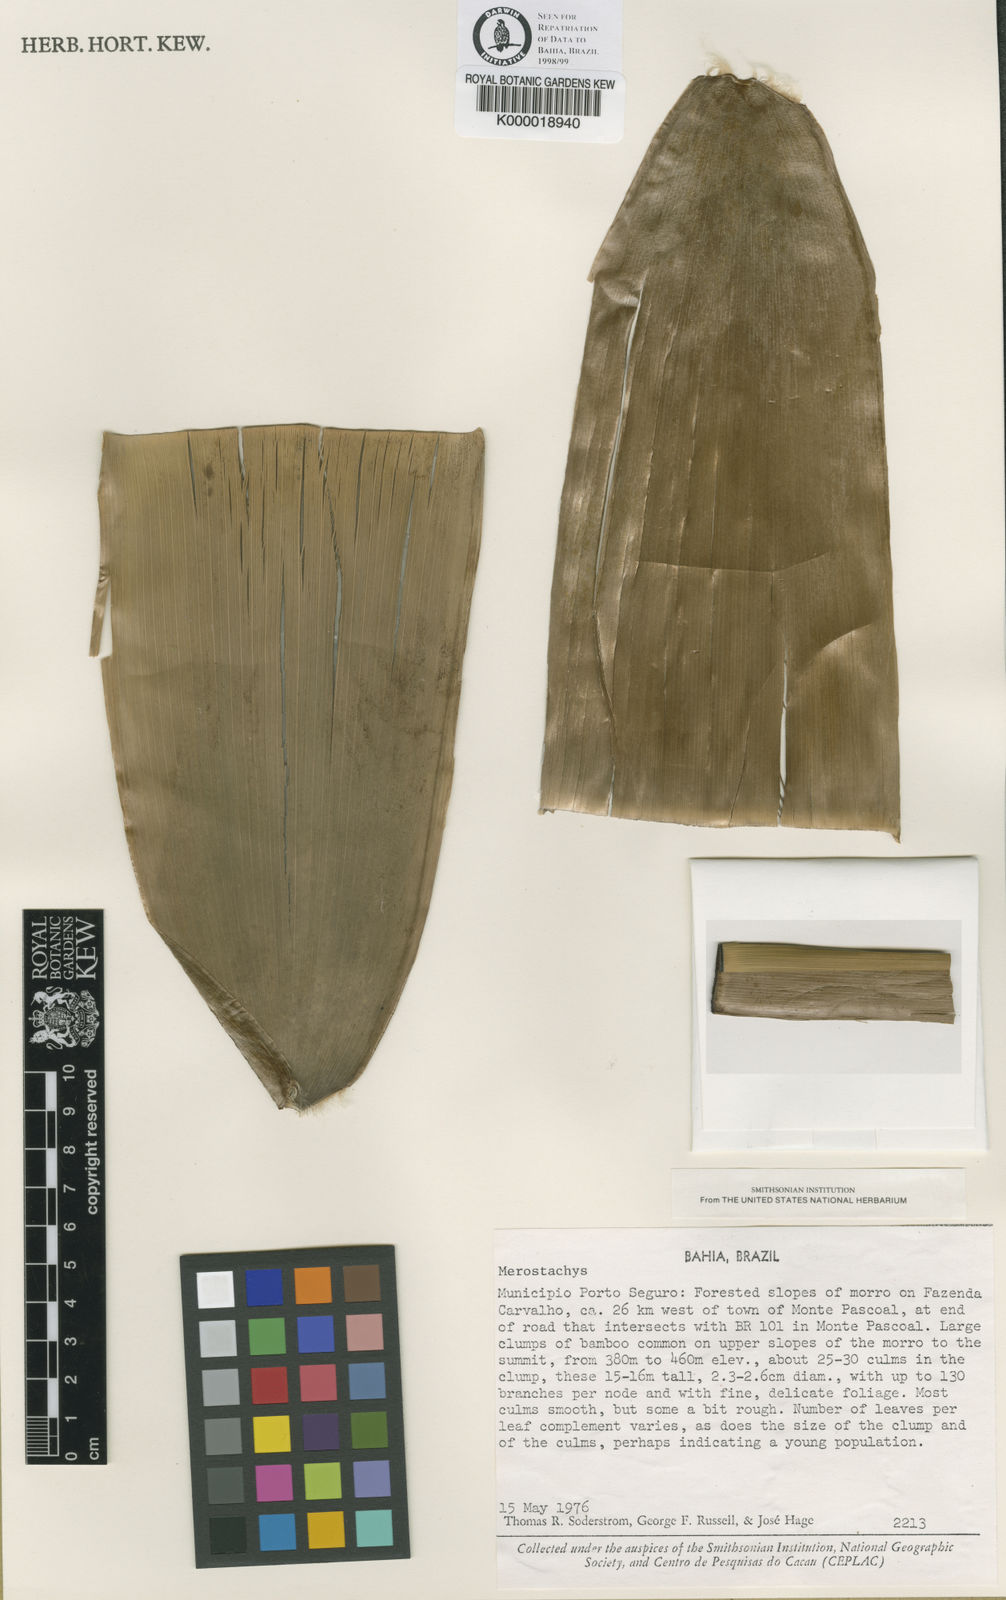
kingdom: Plantae
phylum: Tracheophyta
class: Liliopsida
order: Poales
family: Poaceae
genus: Merostachys
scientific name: Merostachys argentea
